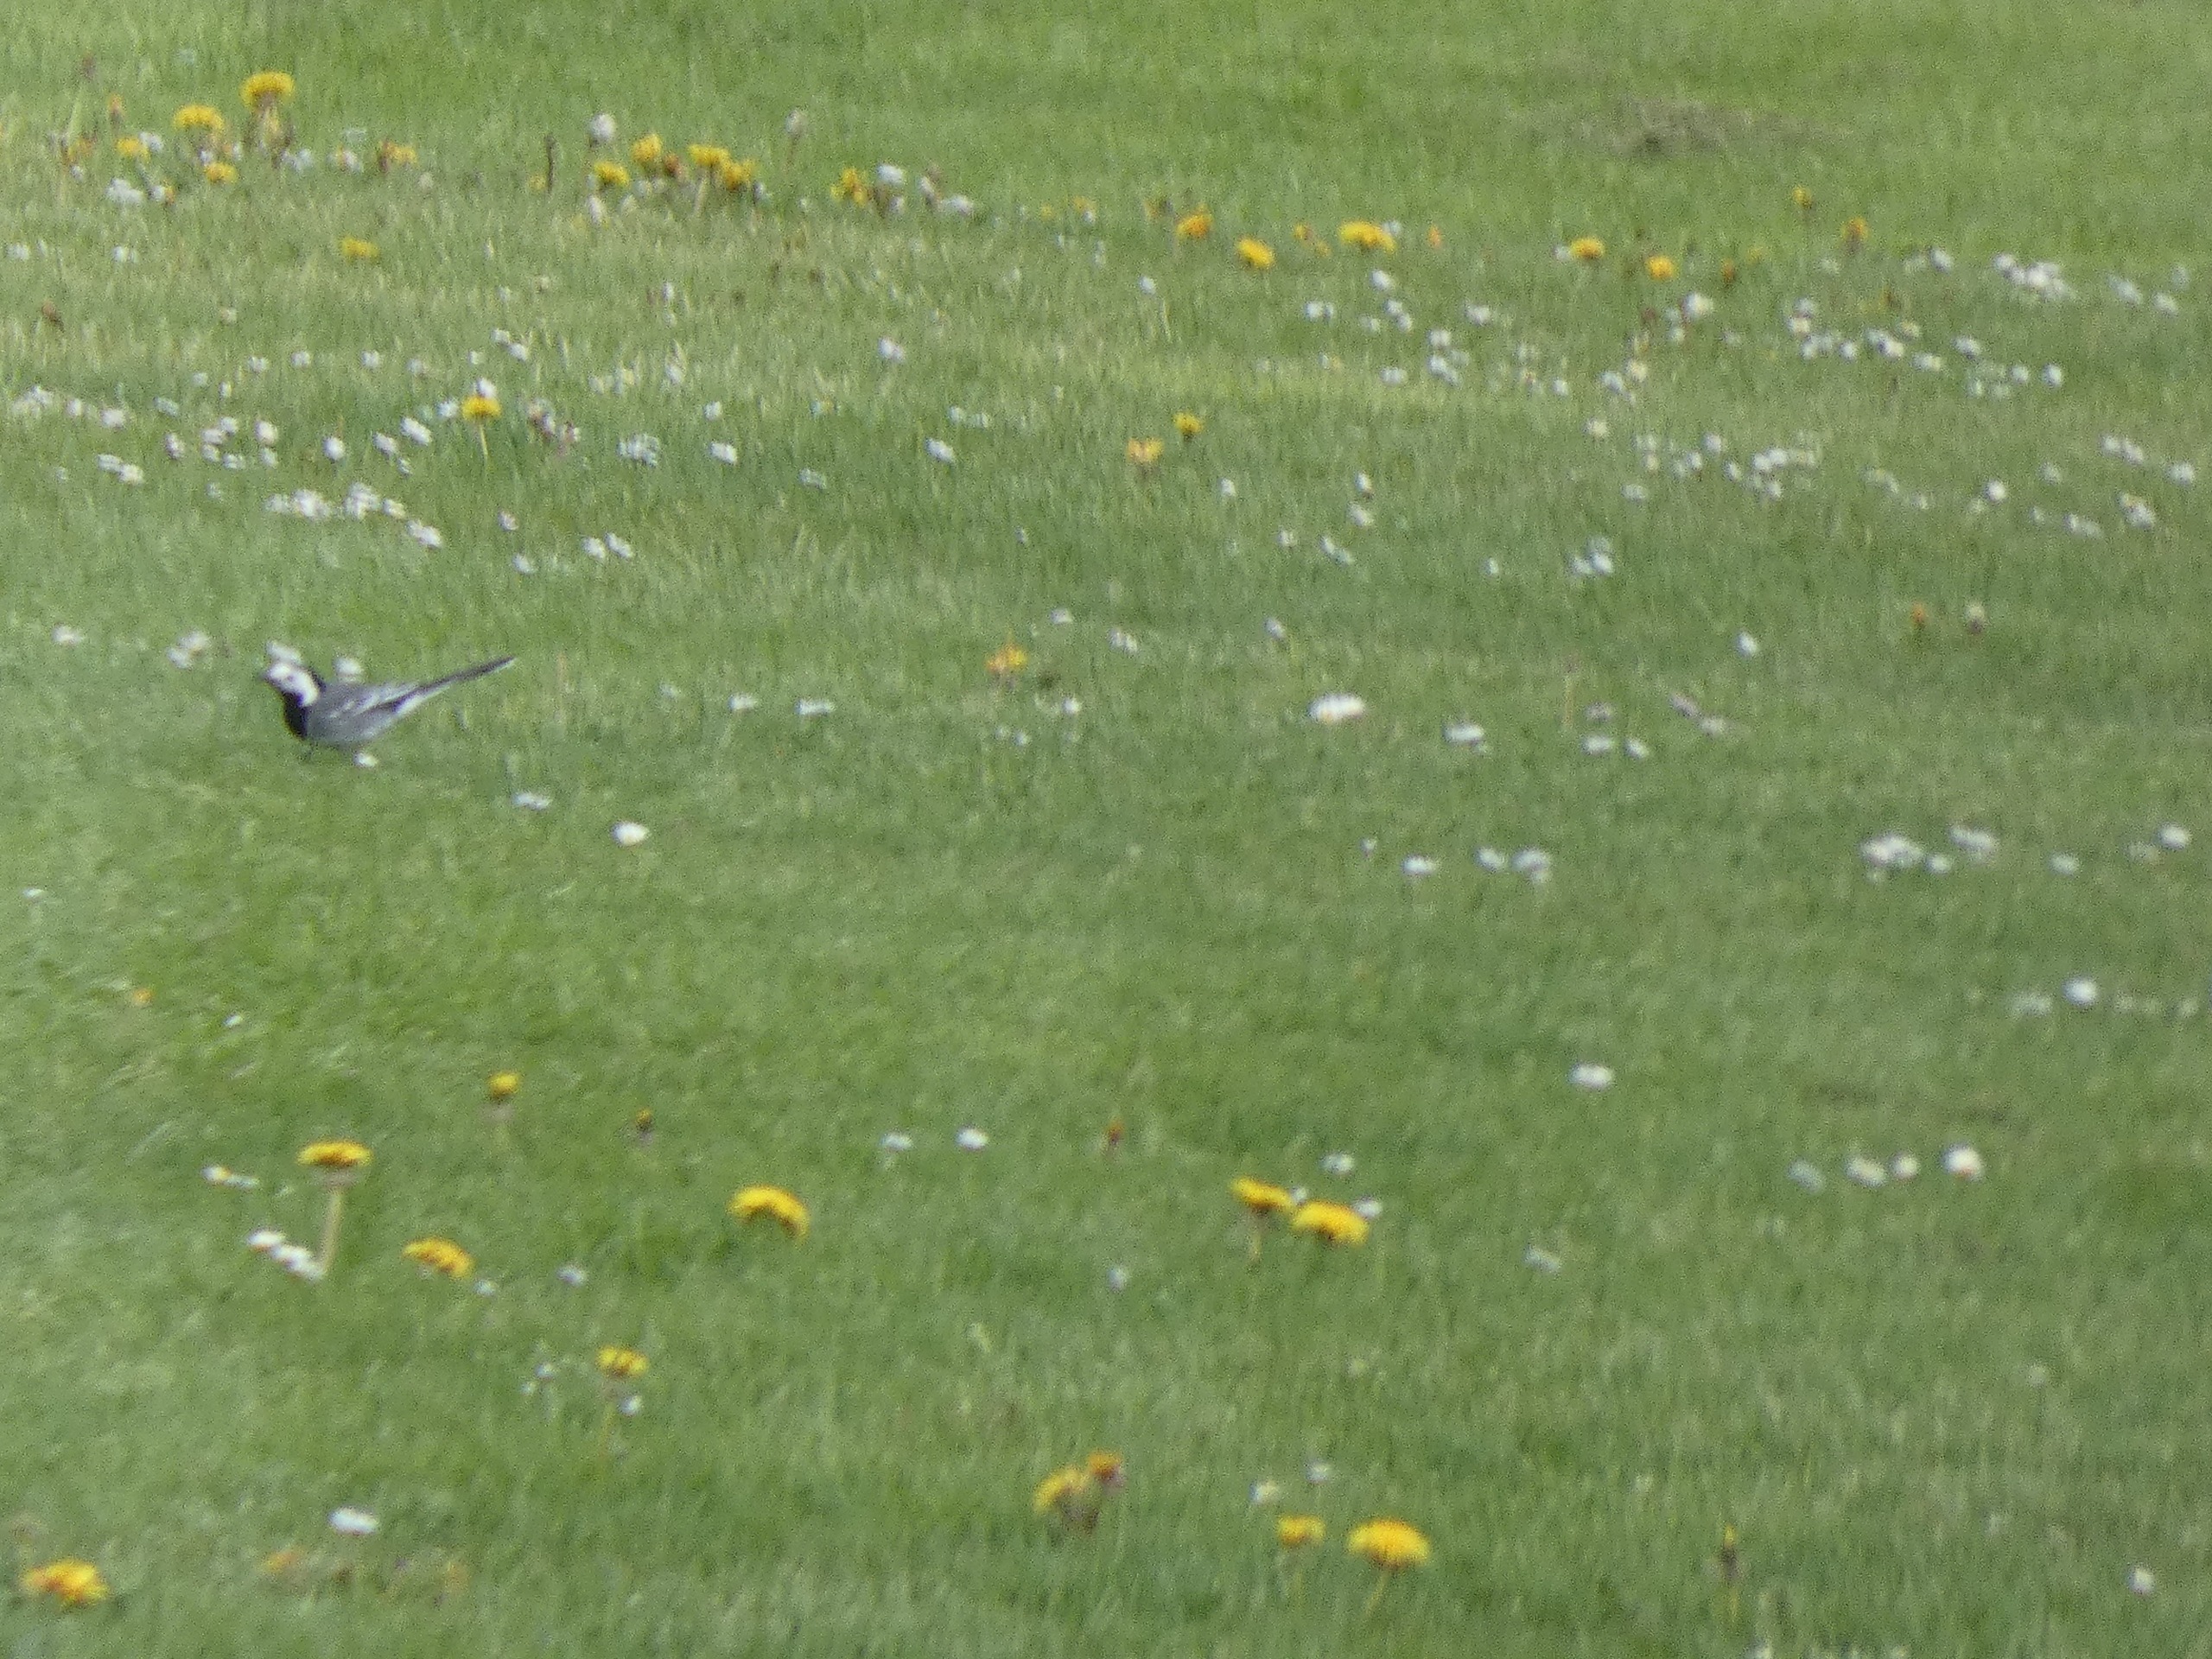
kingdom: Animalia
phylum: Chordata
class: Aves
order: Passeriformes
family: Motacillidae
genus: Motacilla
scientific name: Motacilla alba
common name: Hvid vipstjert
